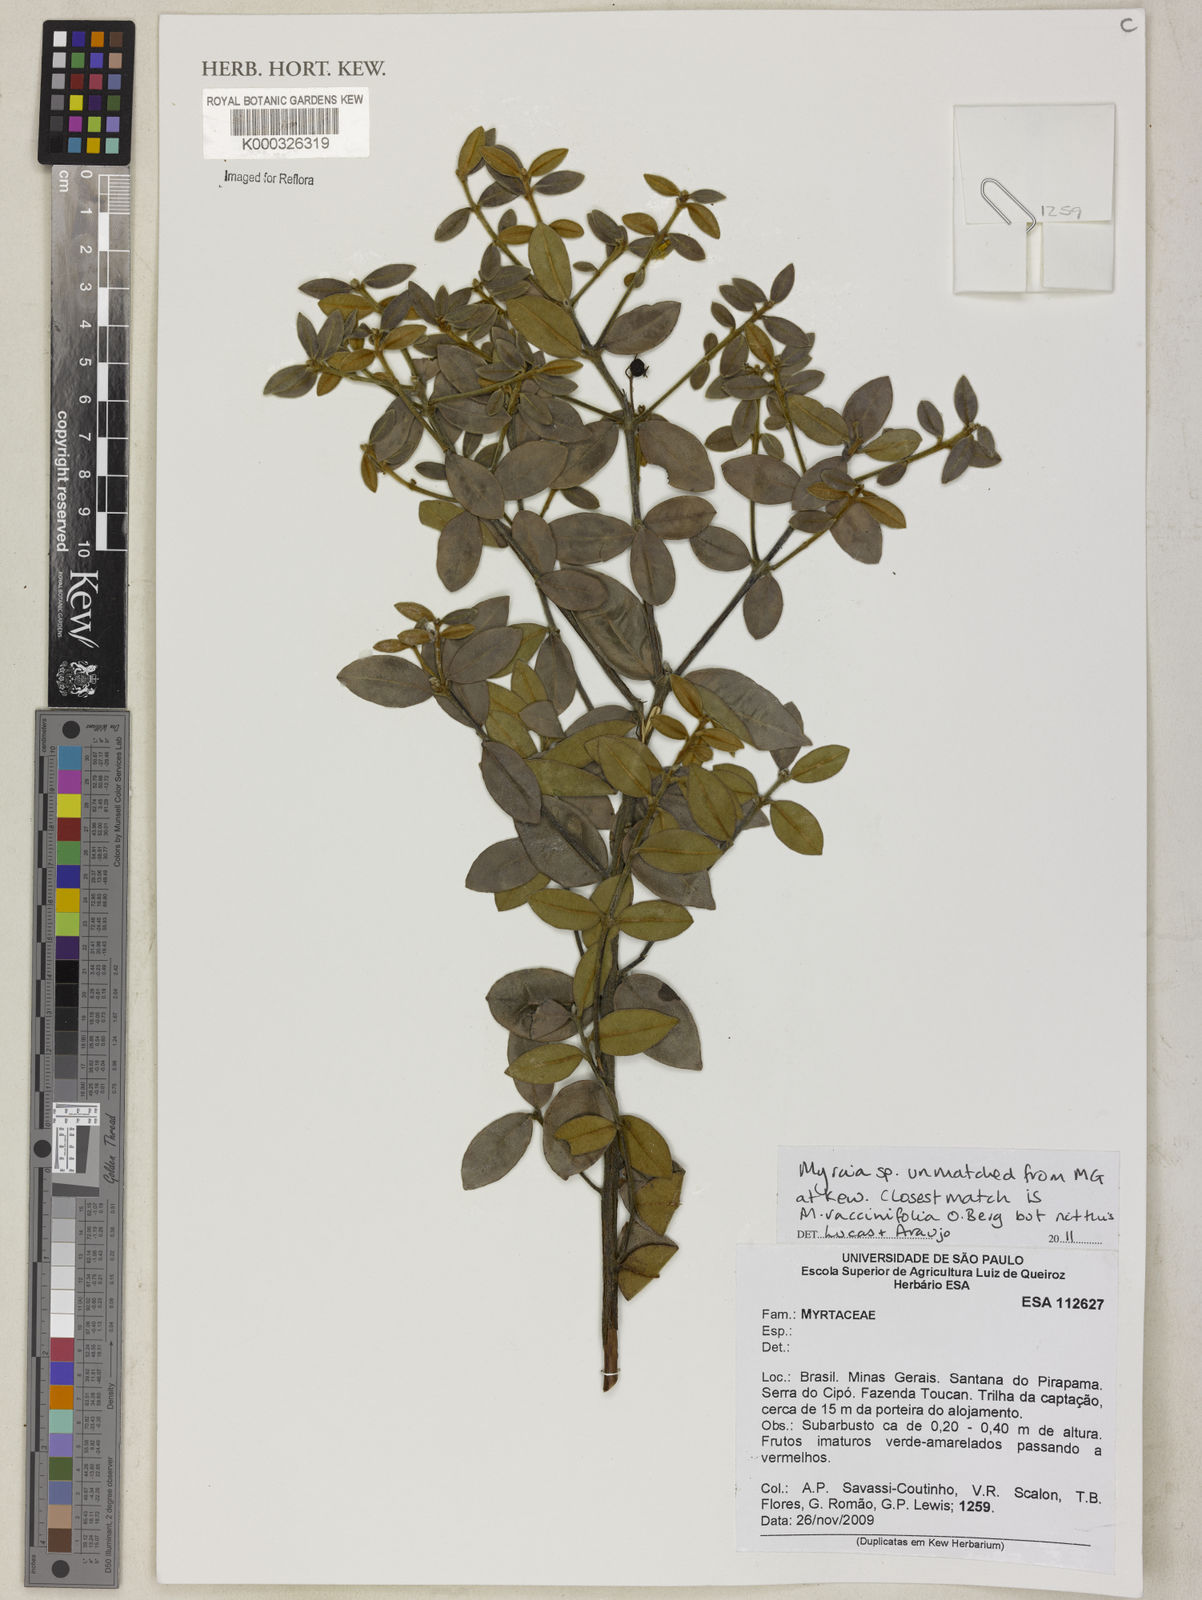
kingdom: Plantae
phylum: Tracheophyta
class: Magnoliopsida
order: Myrtales
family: Myrtaceae
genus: Myrcia
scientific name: Myrcia
